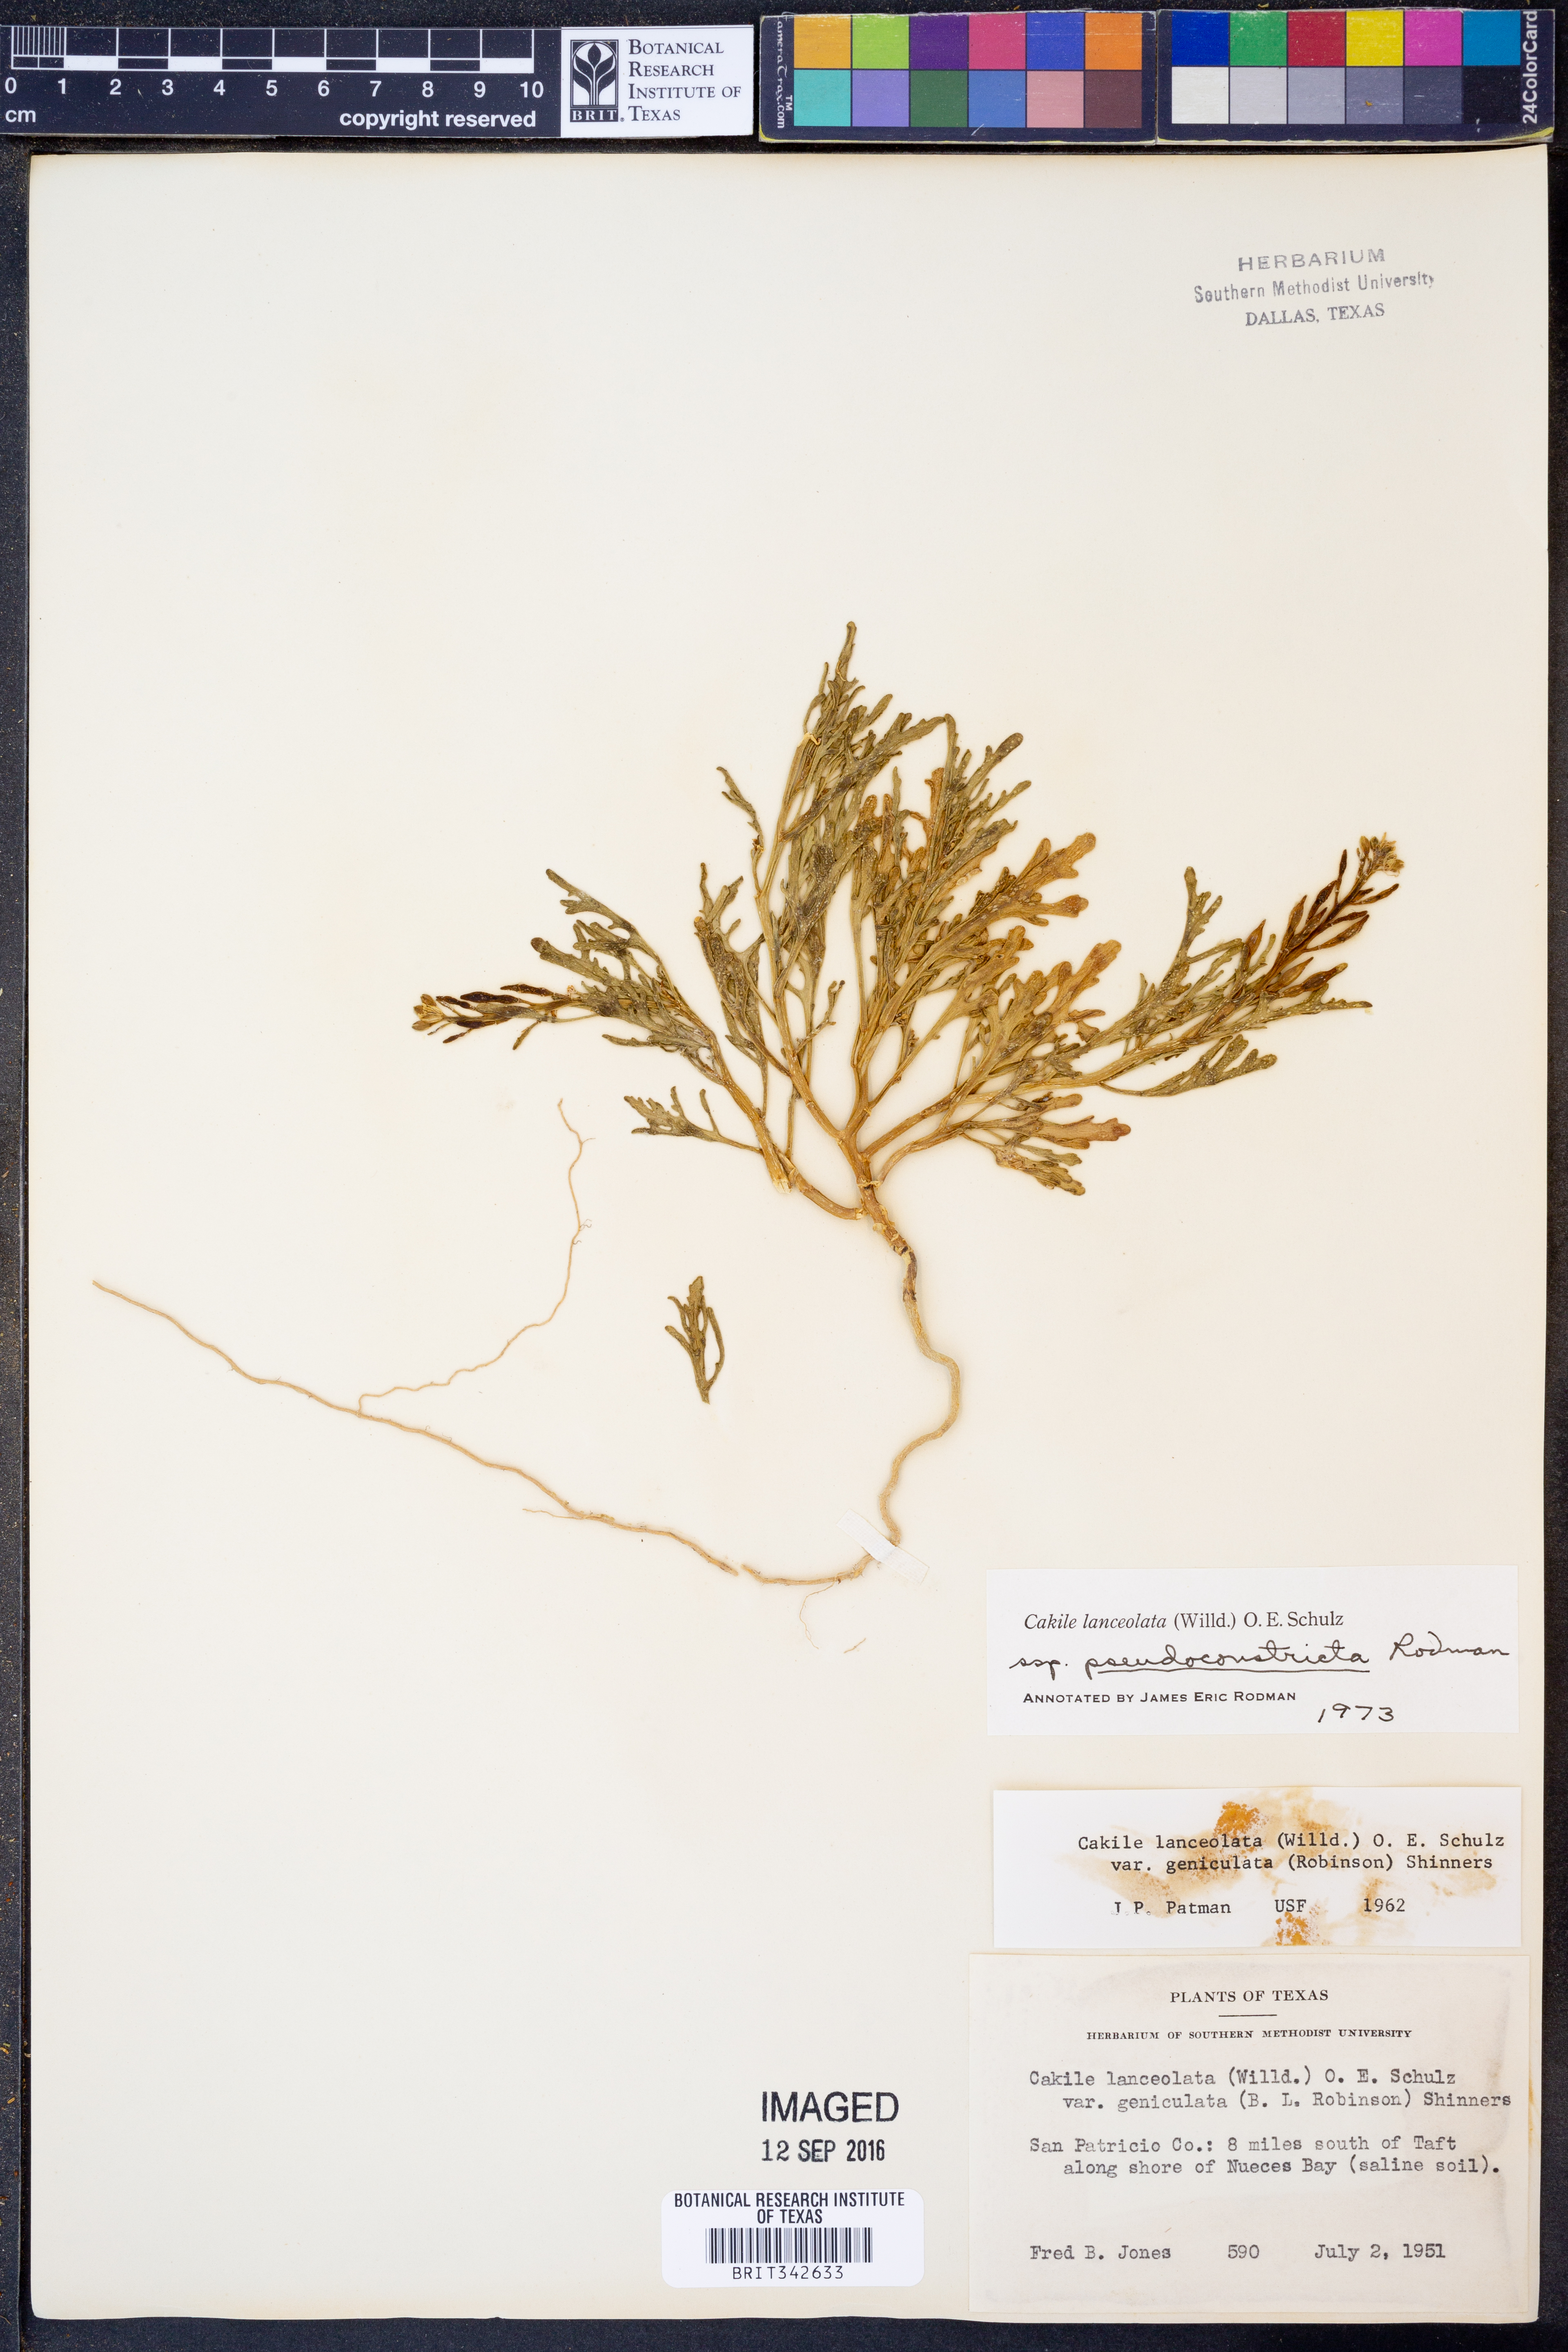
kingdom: Plantae
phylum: Tracheophyta
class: Magnoliopsida
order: Brassicales
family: Brassicaceae
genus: Cakile
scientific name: Cakile lanceolata
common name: Sea rocket
